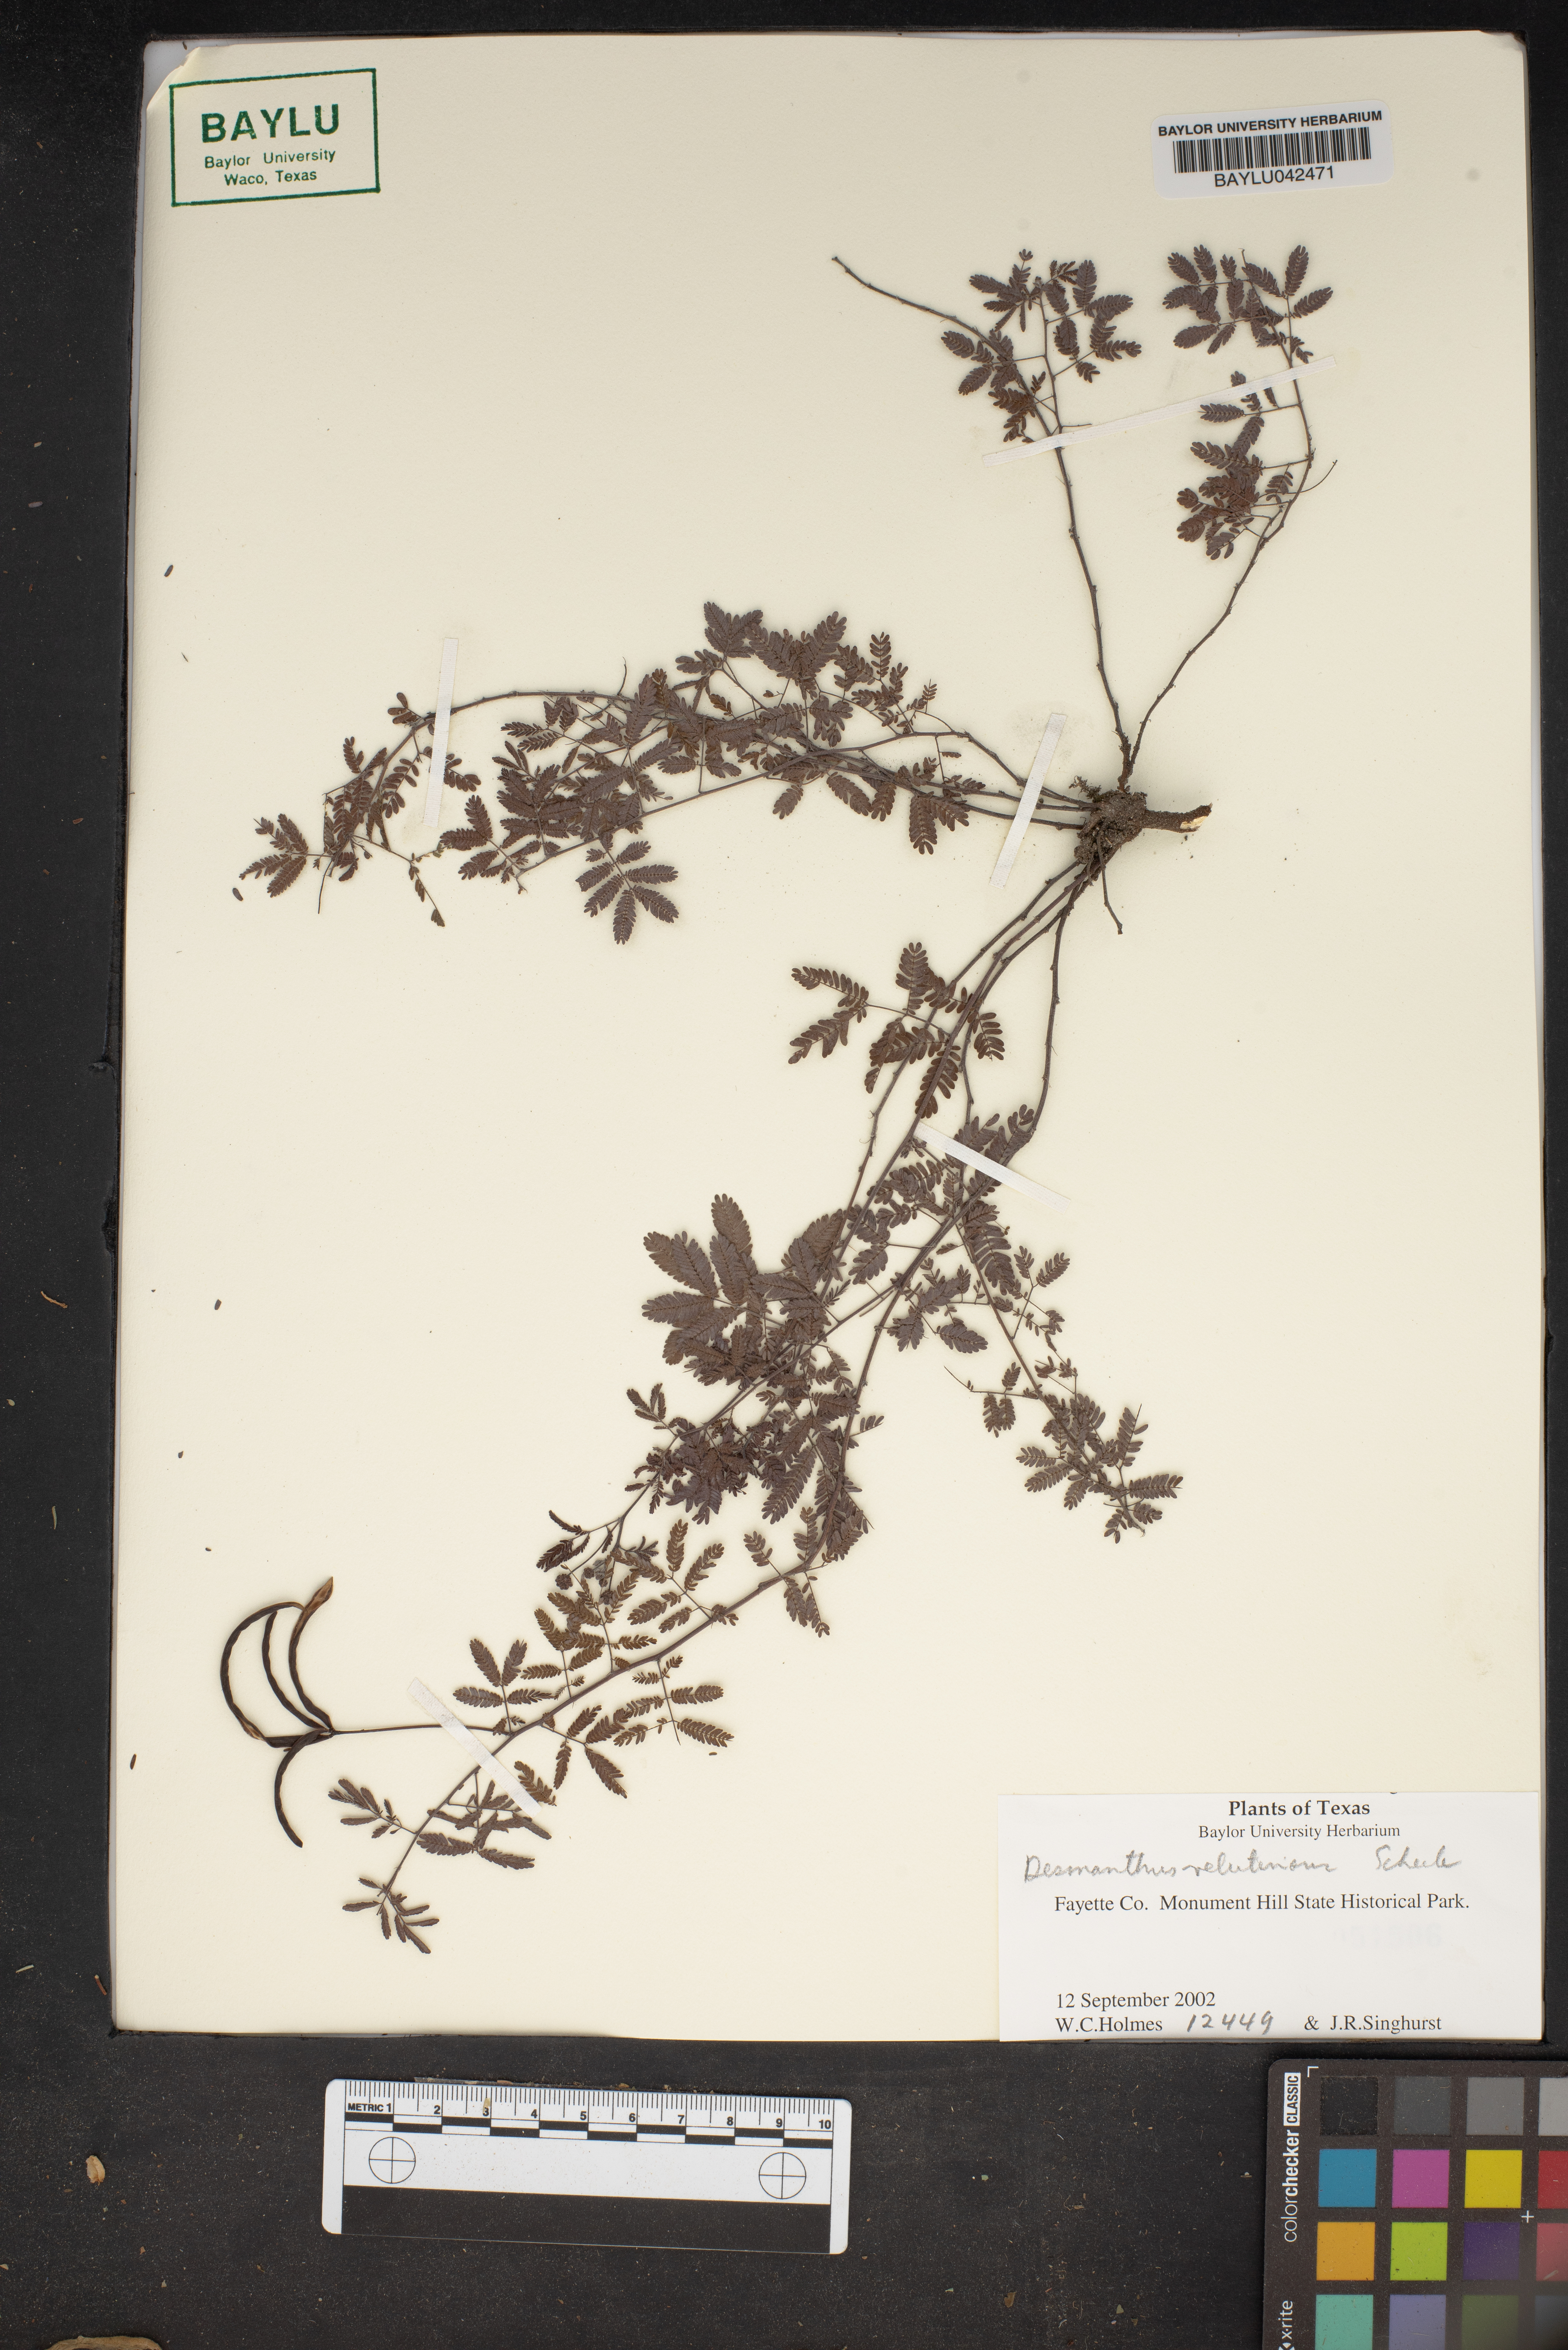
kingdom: Plantae
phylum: Tracheophyta
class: Magnoliopsida
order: Fabales
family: Fabaceae
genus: Desmanthus
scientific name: Desmanthus velutinus
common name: Velvet bundle-flower
